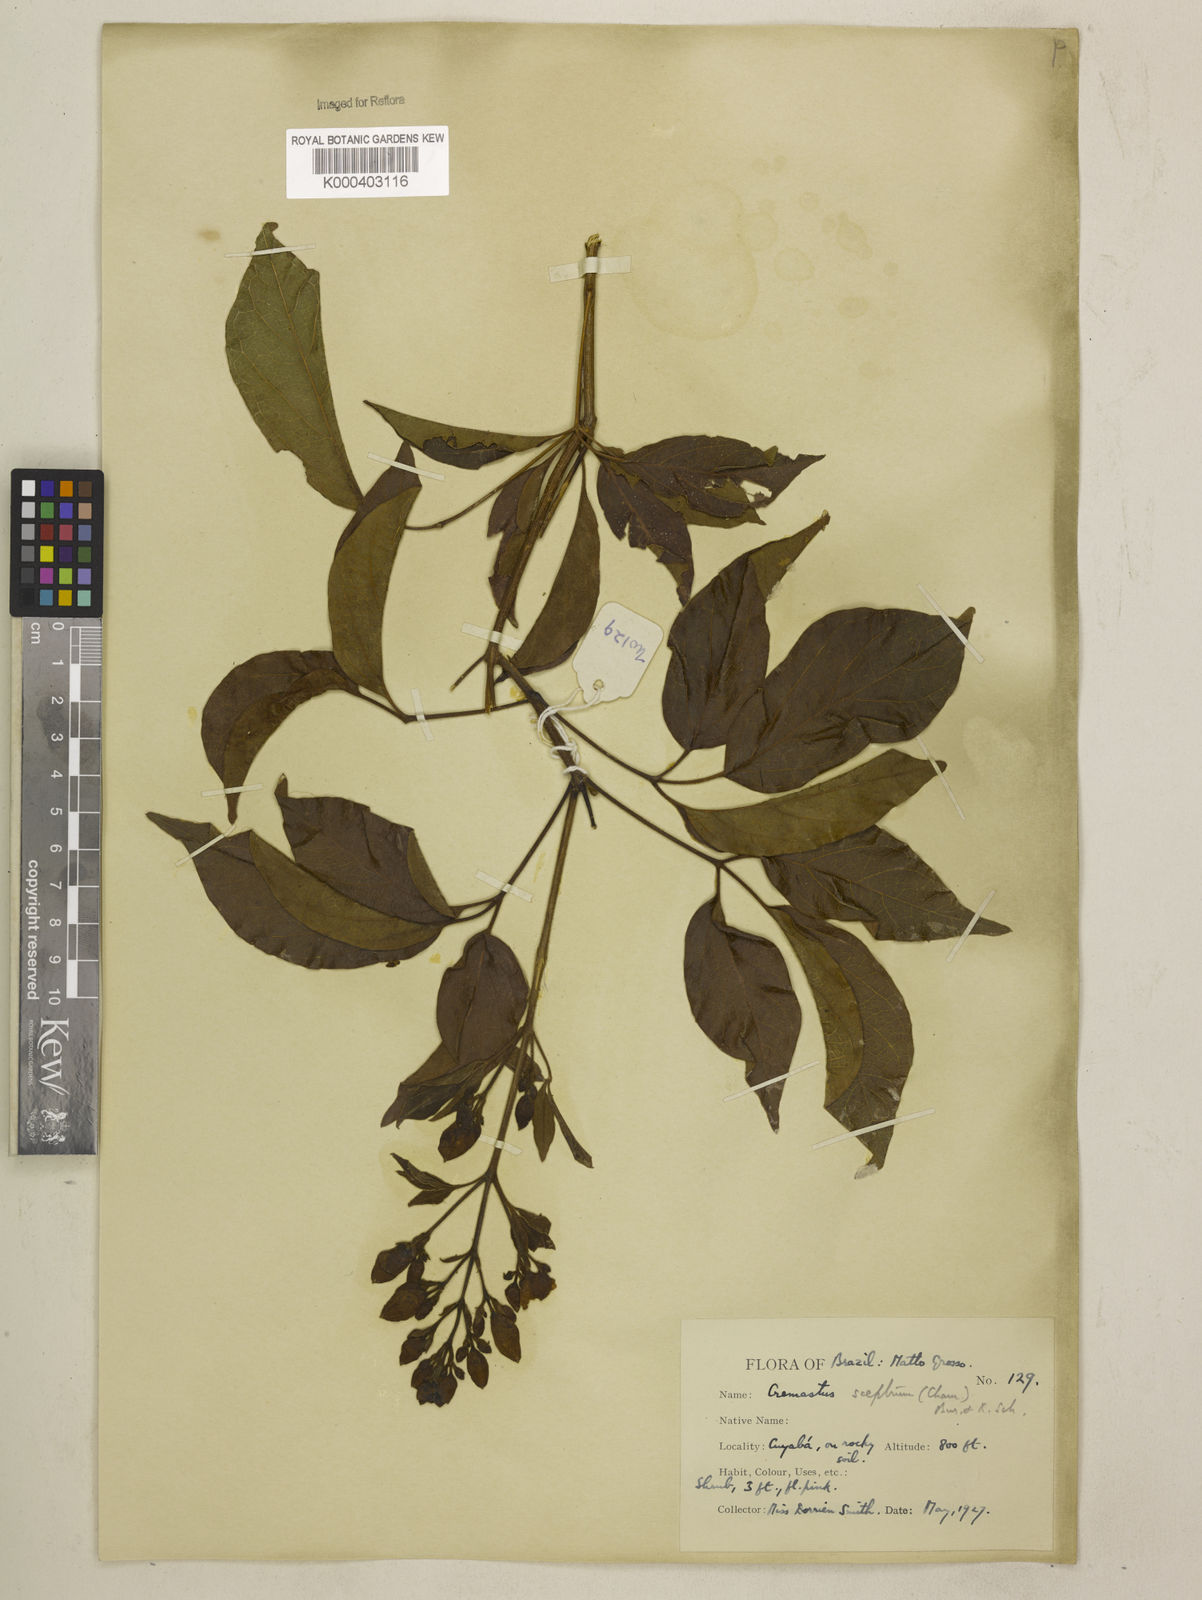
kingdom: Plantae
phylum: Tracheophyta
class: Magnoliopsida
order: Lamiales
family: Bignoniaceae
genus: Cuspidaria
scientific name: Cuspidaria sceptrum
